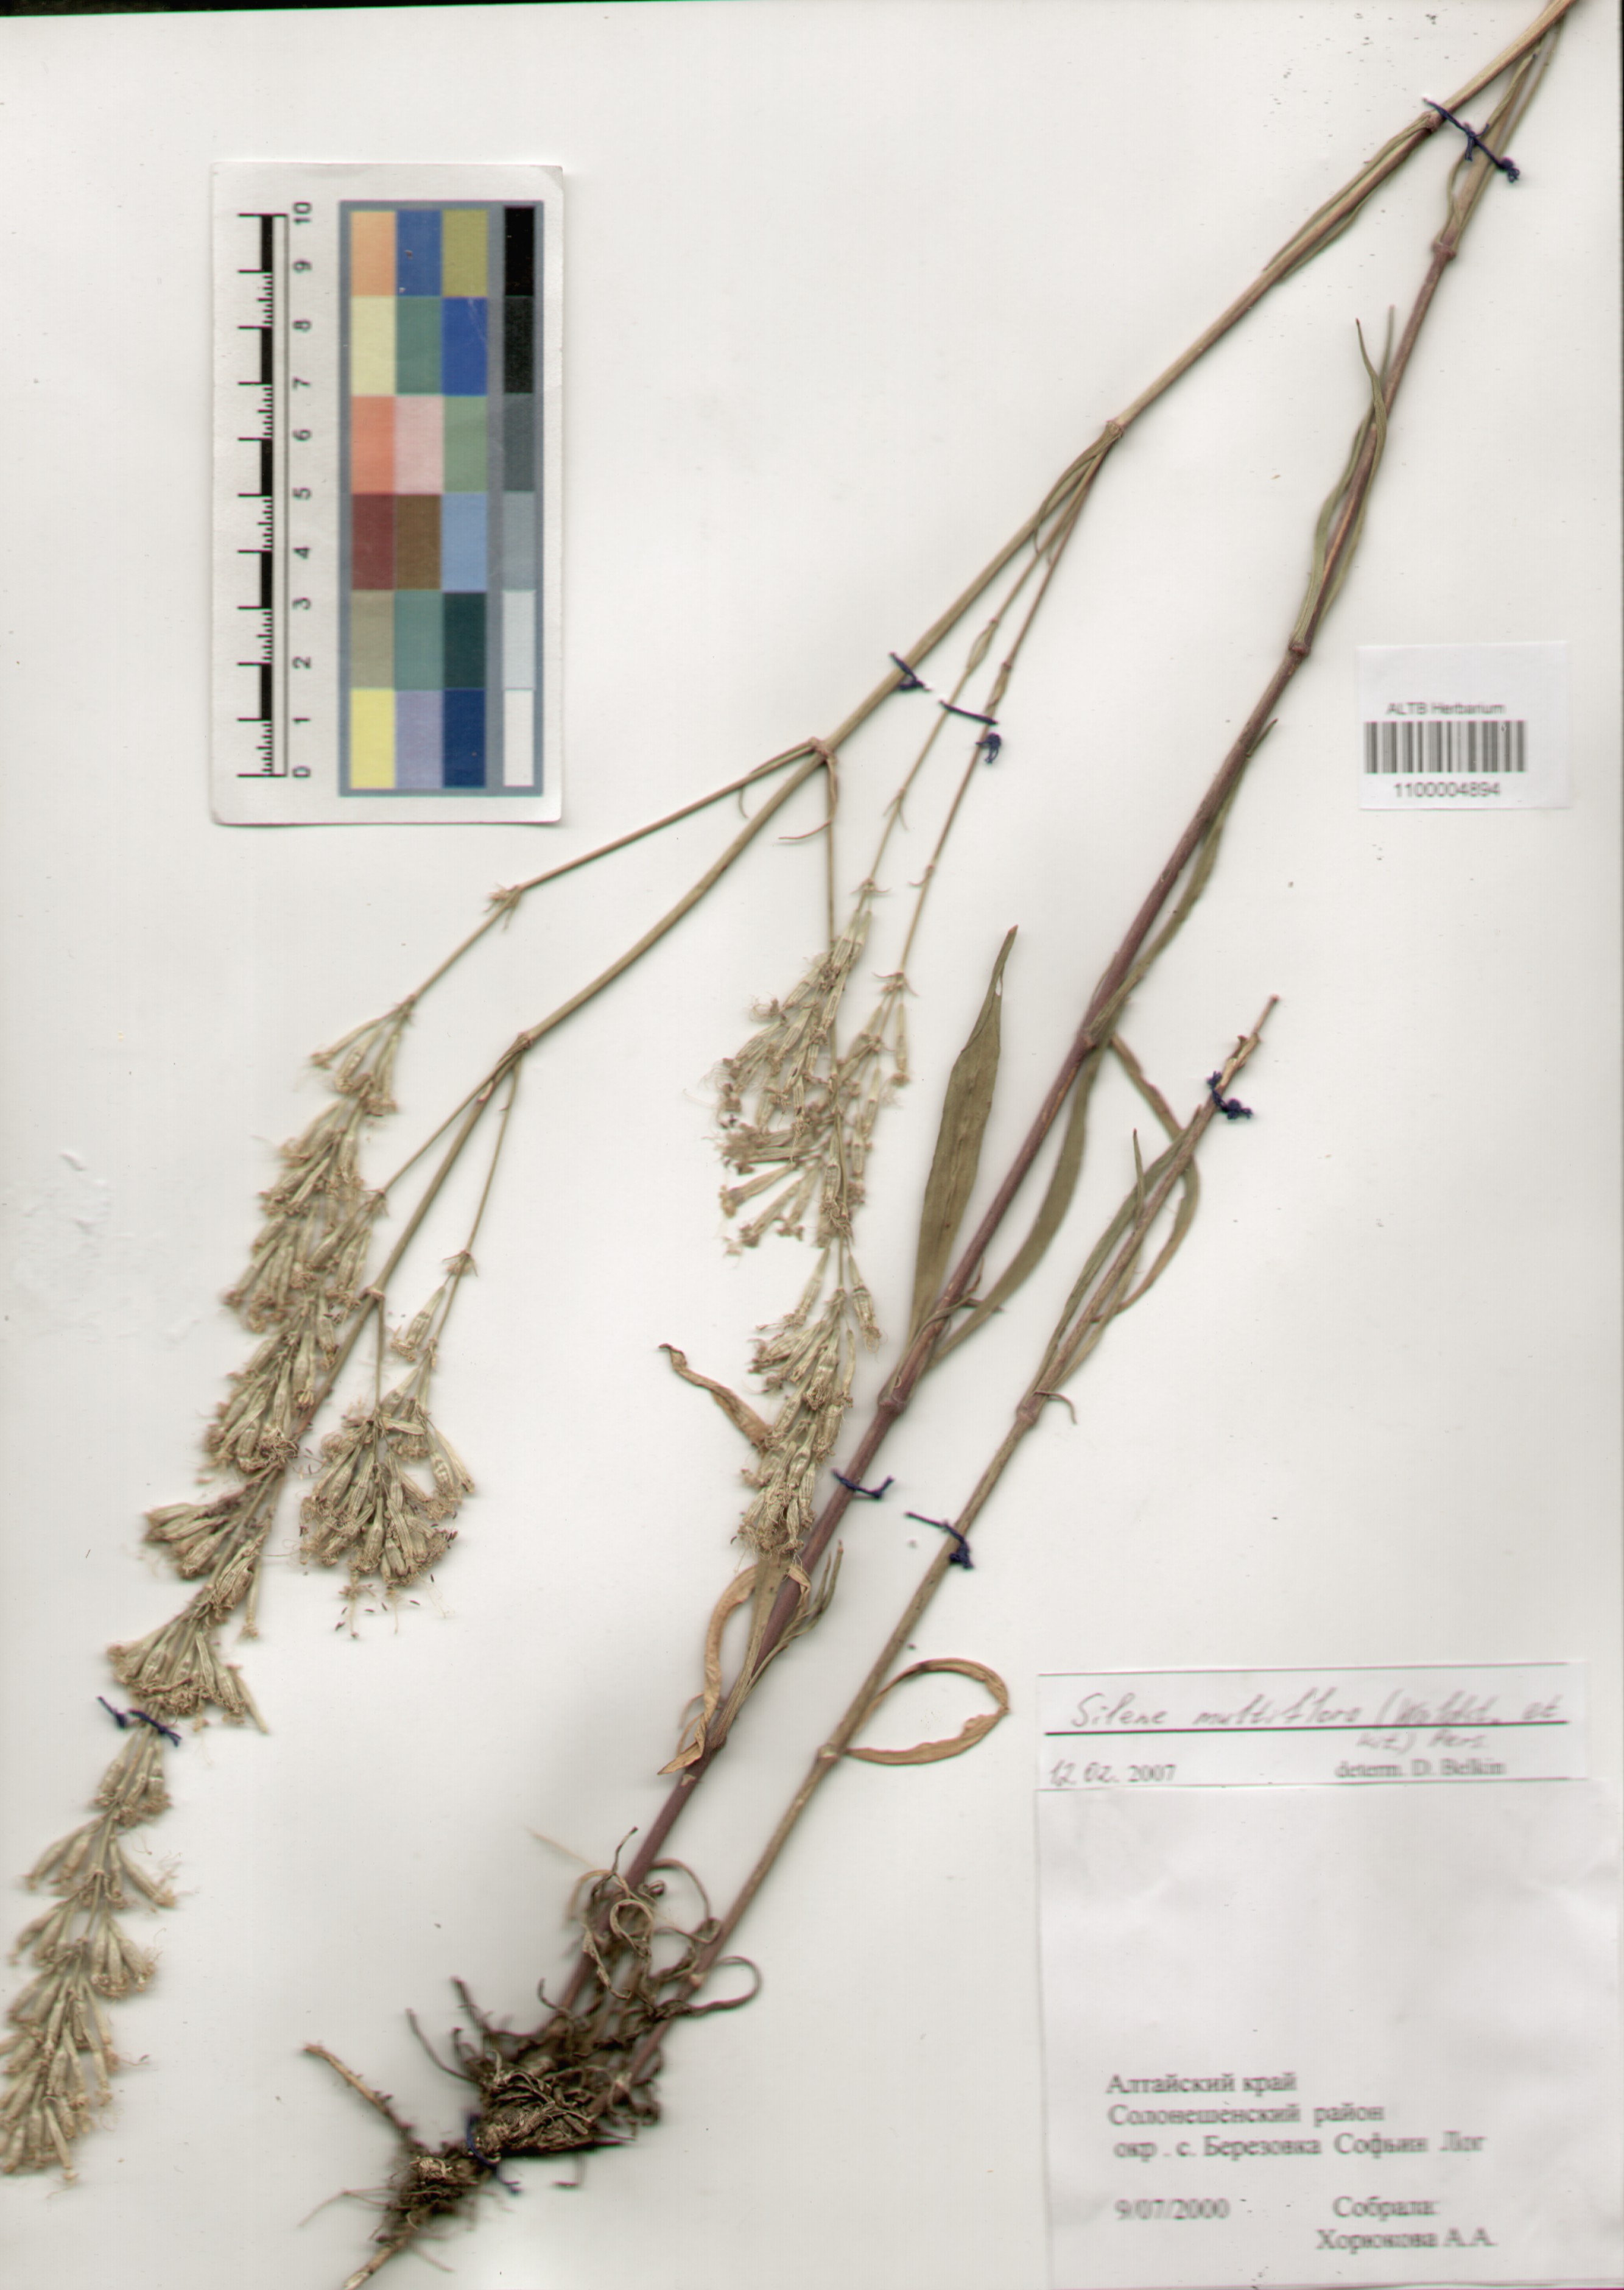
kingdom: Plantae
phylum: Tracheophyta
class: Magnoliopsida
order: Caryophyllales
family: Caryophyllaceae
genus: Silene
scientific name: Silene multiflora
